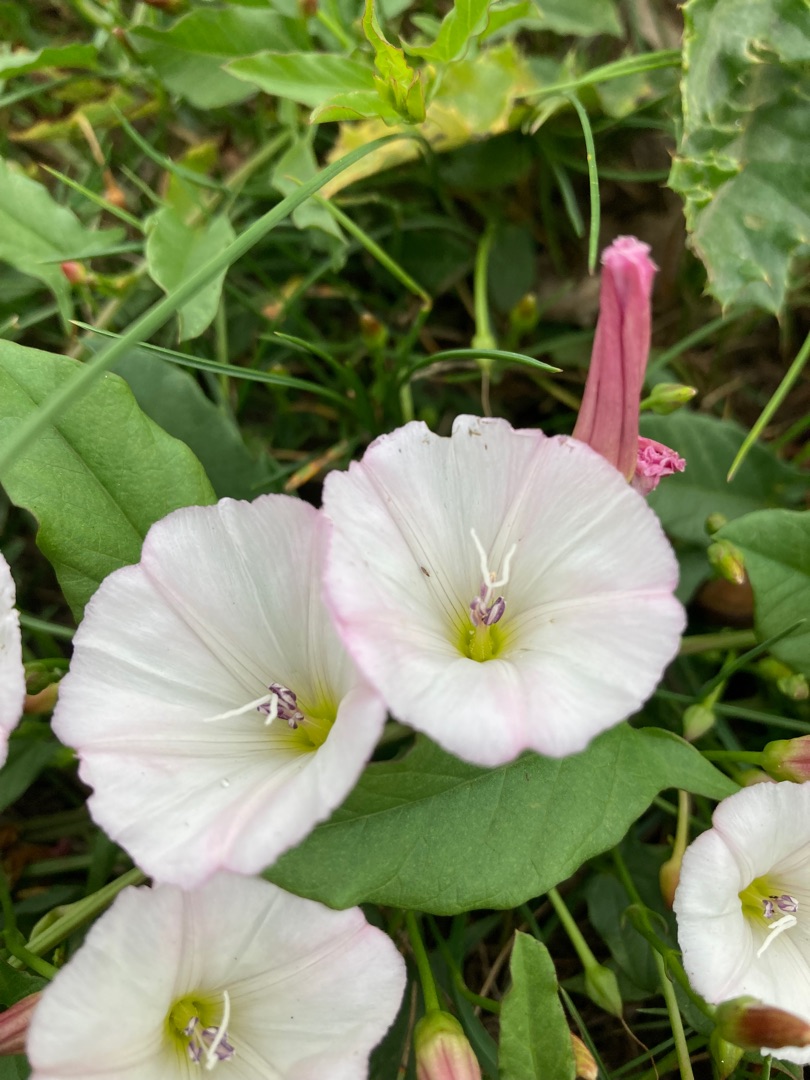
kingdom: Plantae
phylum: Tracheophyta
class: Magnoliopsida
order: Solanales
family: Convolvulaceae
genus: Convolvulus
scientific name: Convolvulus arvensis
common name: Ager-snerle
